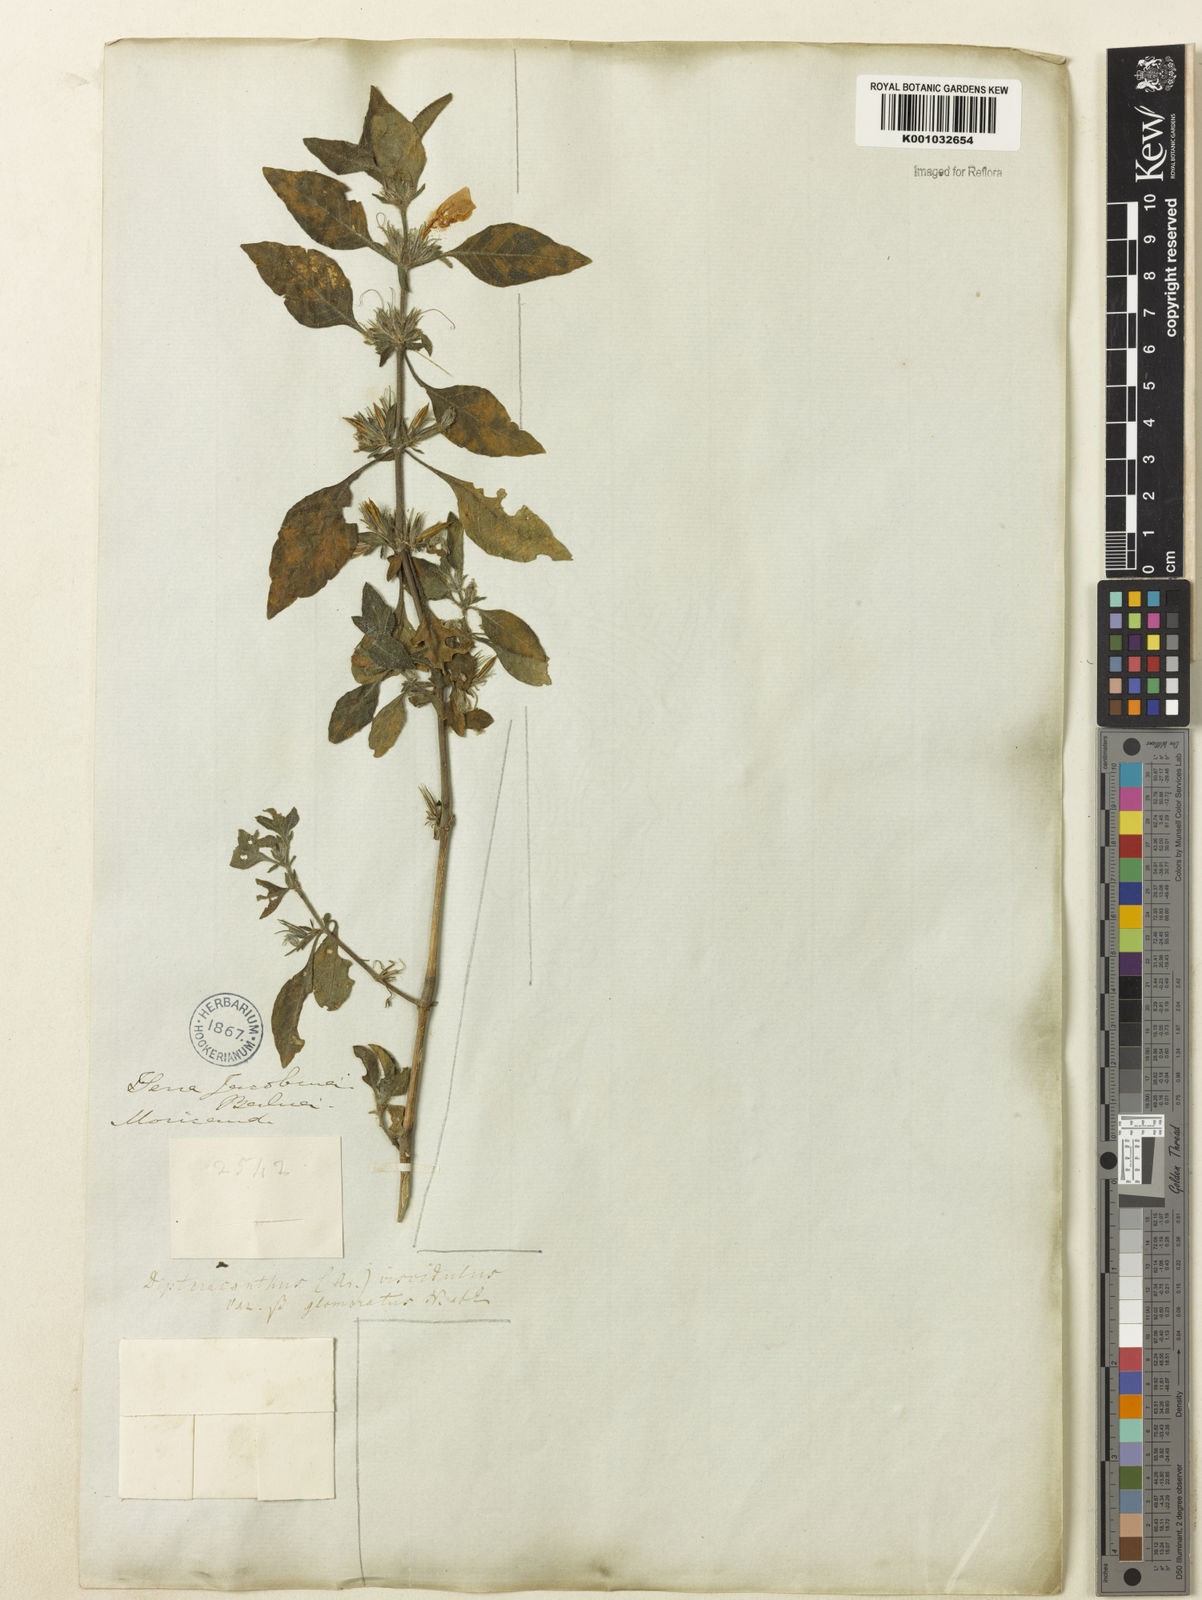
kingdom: Plantae
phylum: Tracheophyta
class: Magnoliopsida
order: Lamiales
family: Acanthaceae
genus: Ruellia
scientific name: Ruellia
